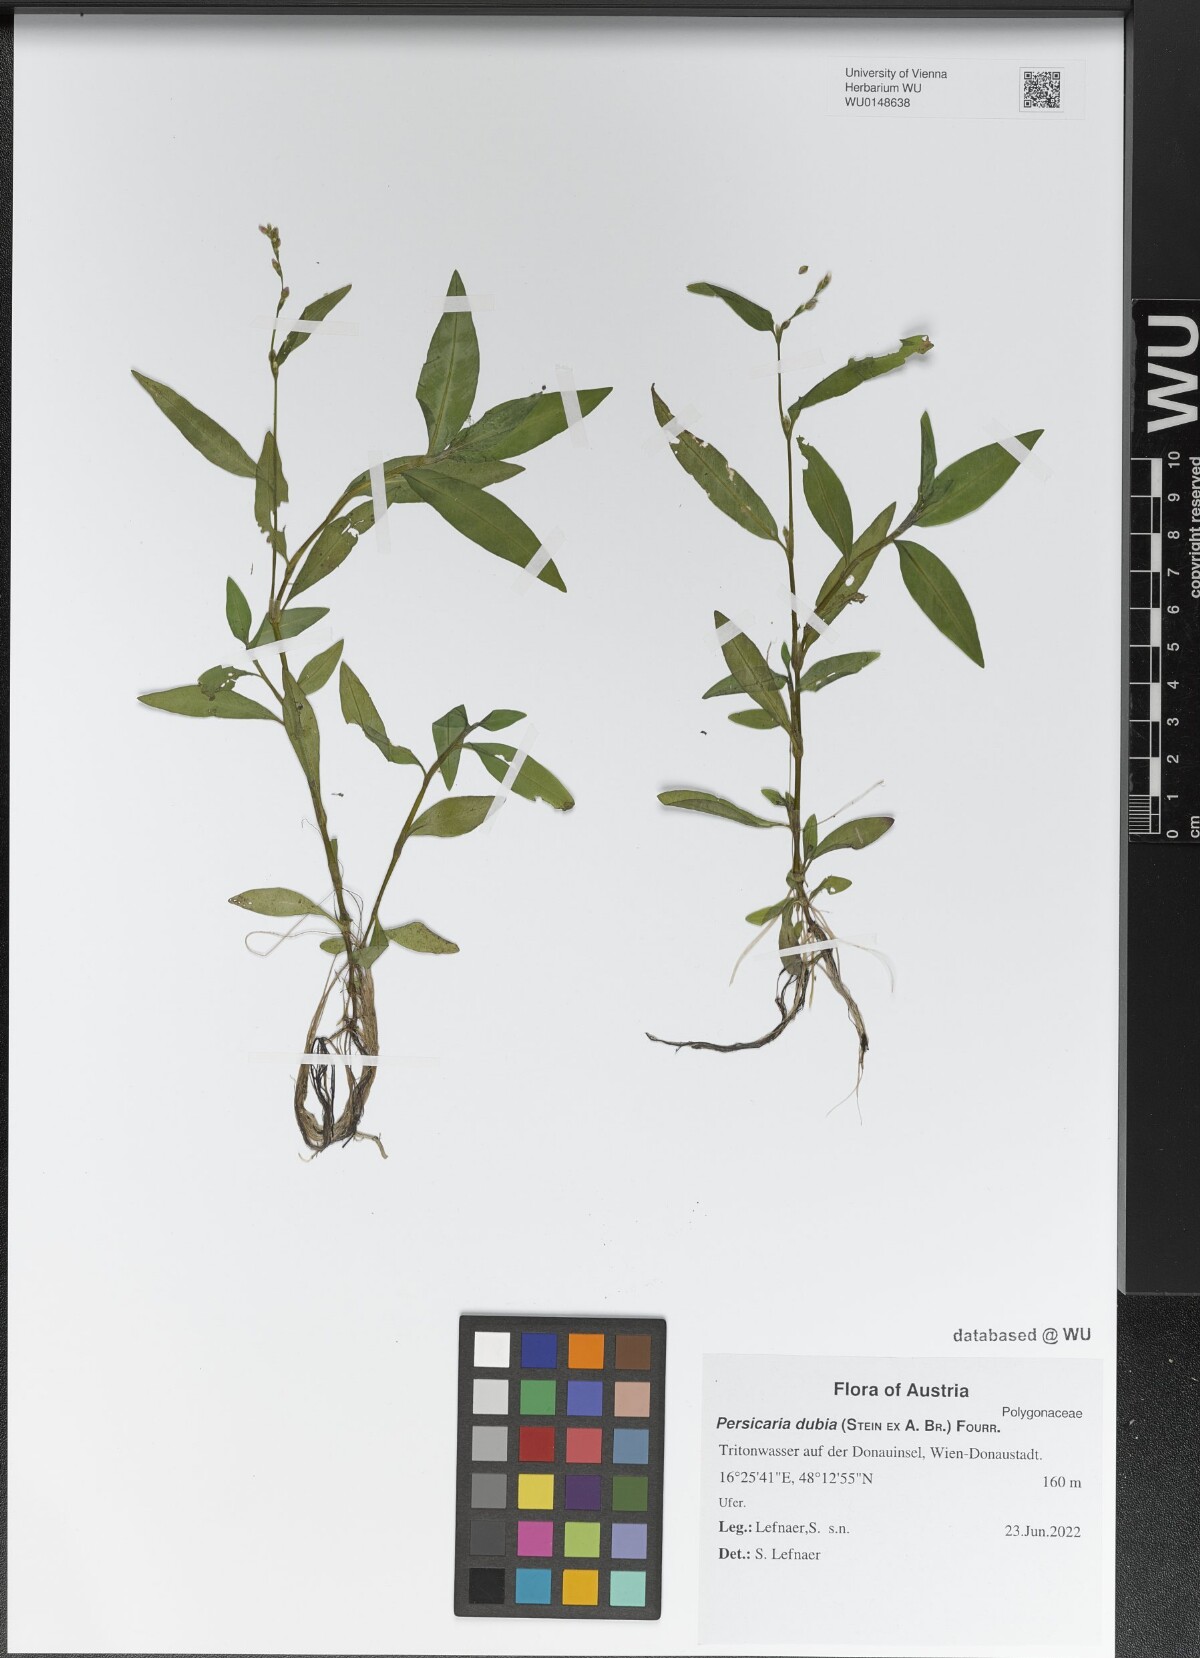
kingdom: Plantae
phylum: Tracheophyta
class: Magnoliopsida
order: Caryophyllales
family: Polygonaceae
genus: Persicaria
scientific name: Persicaria mitis
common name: Tasteless water-pepper
